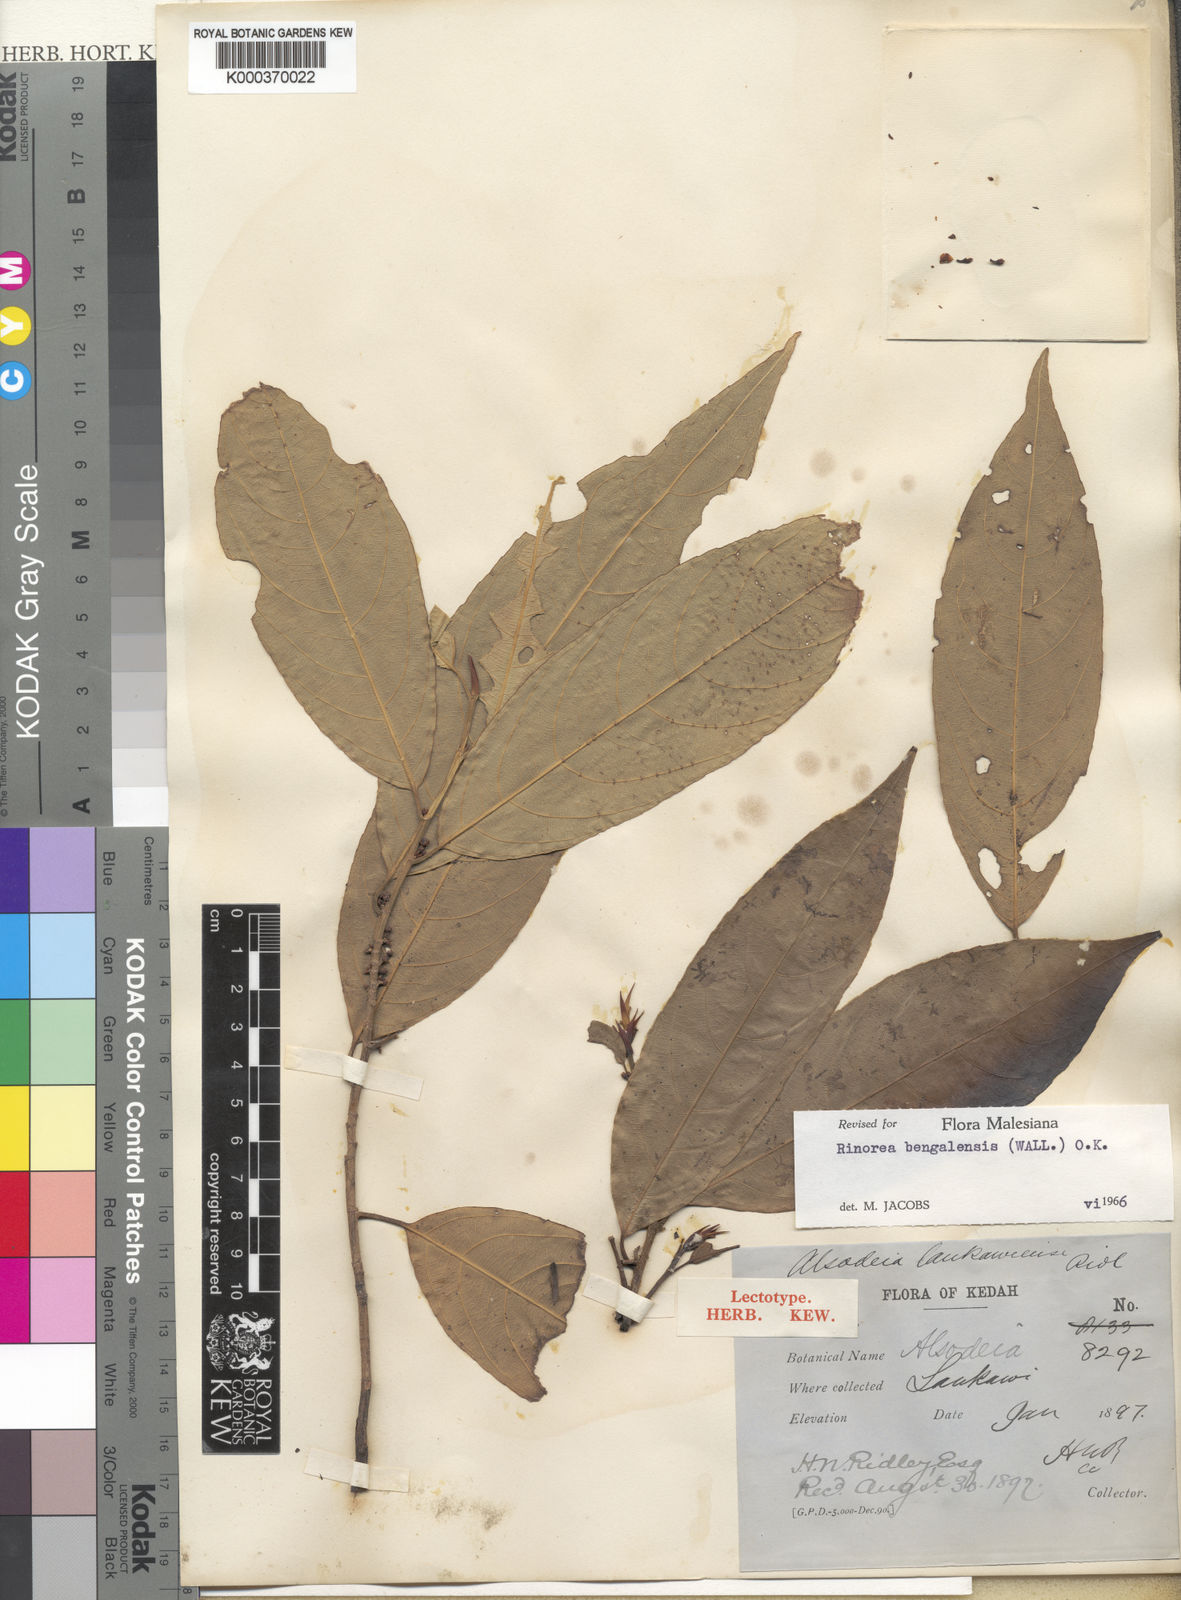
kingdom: Plantae
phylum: Tracheophyta
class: Magnoliopsida
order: Malpighiales
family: Violaceae
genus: Rinorea
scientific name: Rinorea bengalensis
